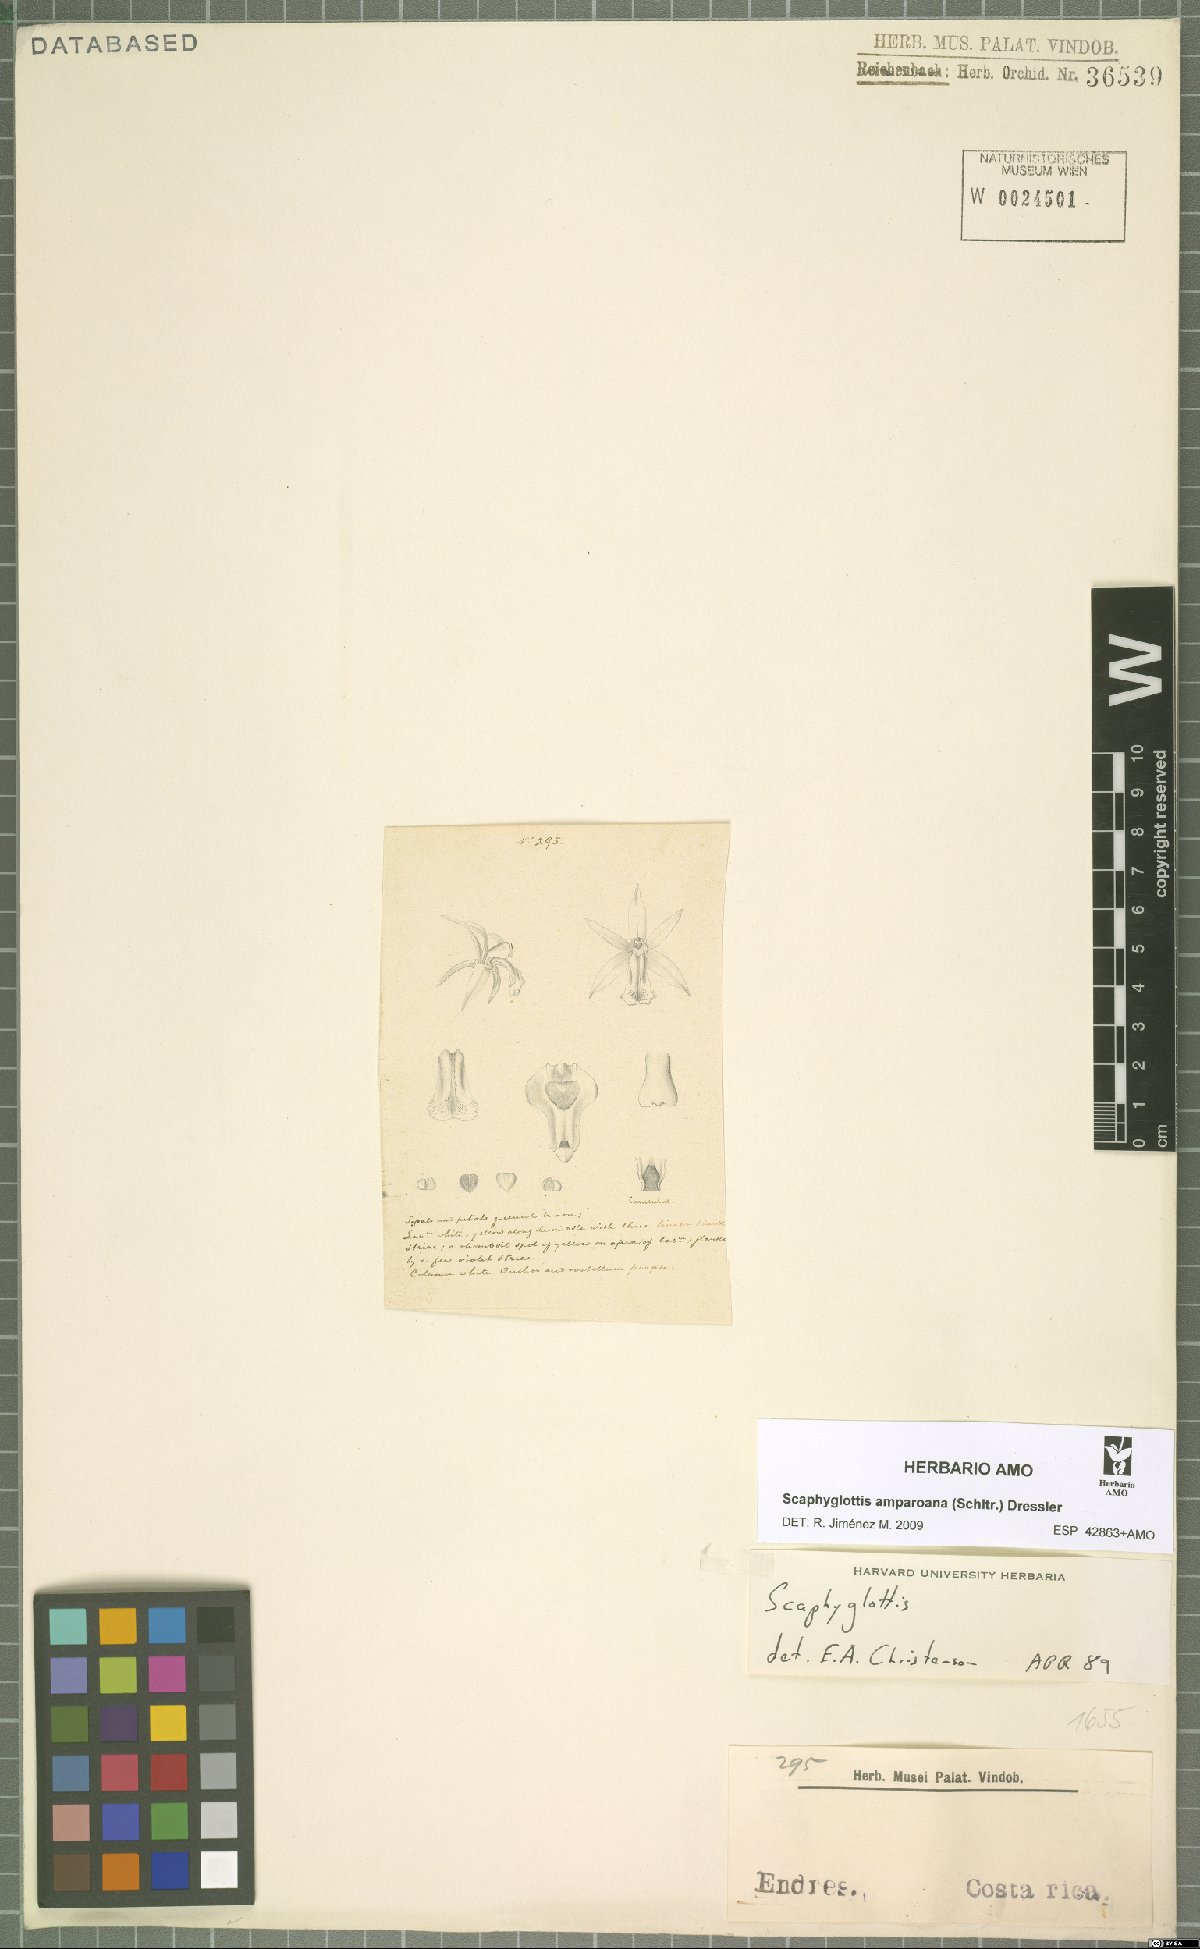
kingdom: Plantae
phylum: Tracheophyta
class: Liliopsida
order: Asparagales
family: Orchidaceae
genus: Scaphyglottis
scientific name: Scaphyglottis amparoana
